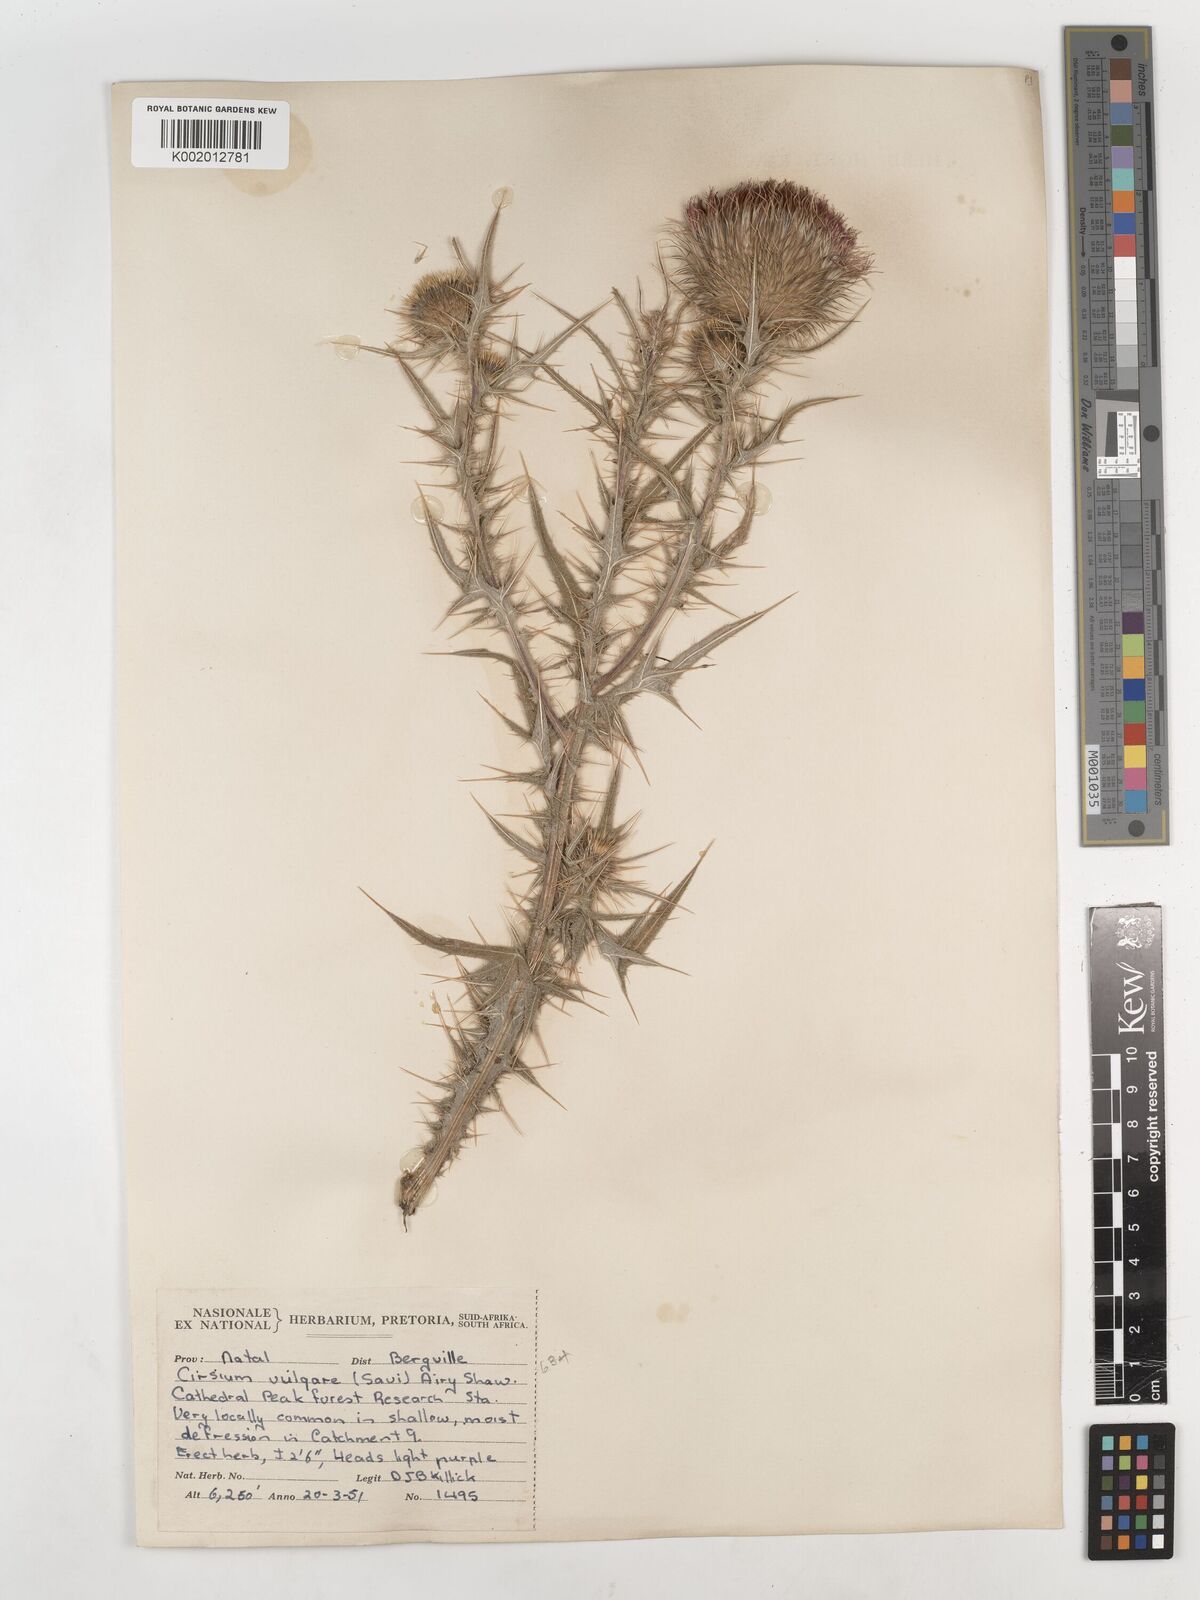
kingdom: Plantae
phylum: Tracheophyta
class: Magnoliopsida
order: Asterales
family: Asteraceae
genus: Cirsium
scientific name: Cirsium vulgare
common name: Bull thistle
